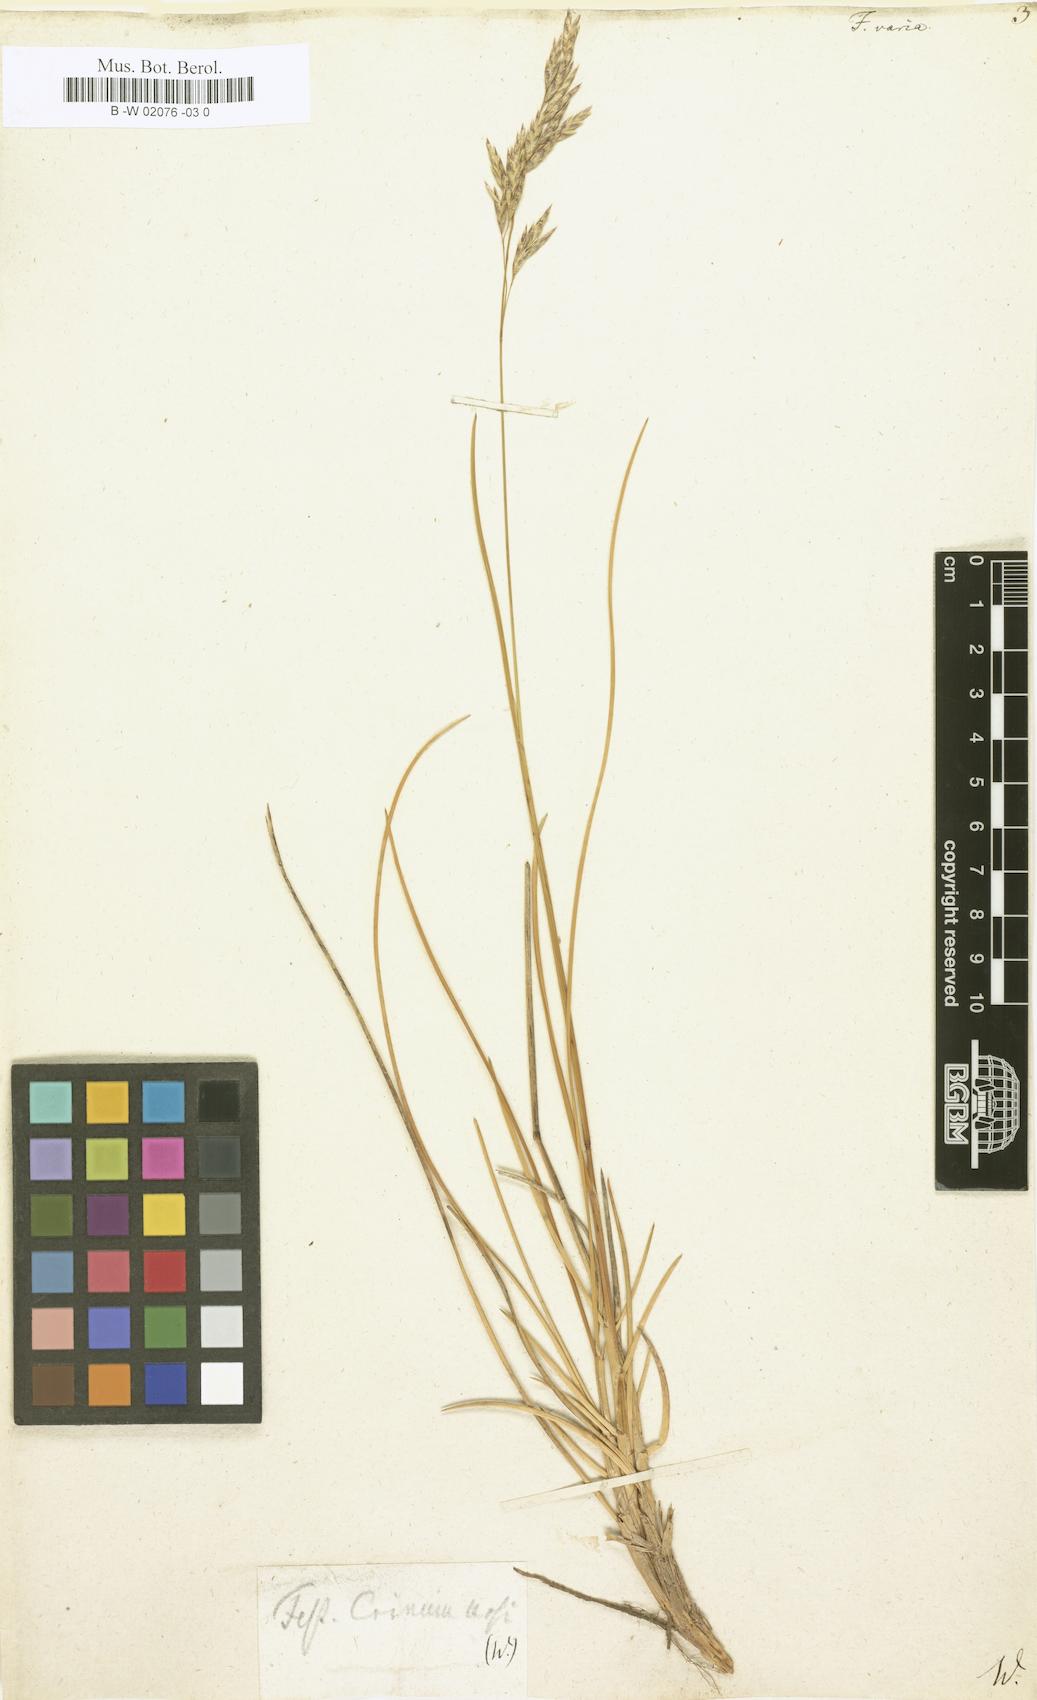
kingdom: Plantae
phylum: Tracheophyta
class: Liliopsida
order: Poales
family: Poaceae
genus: Festuca
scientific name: Festuca varia
